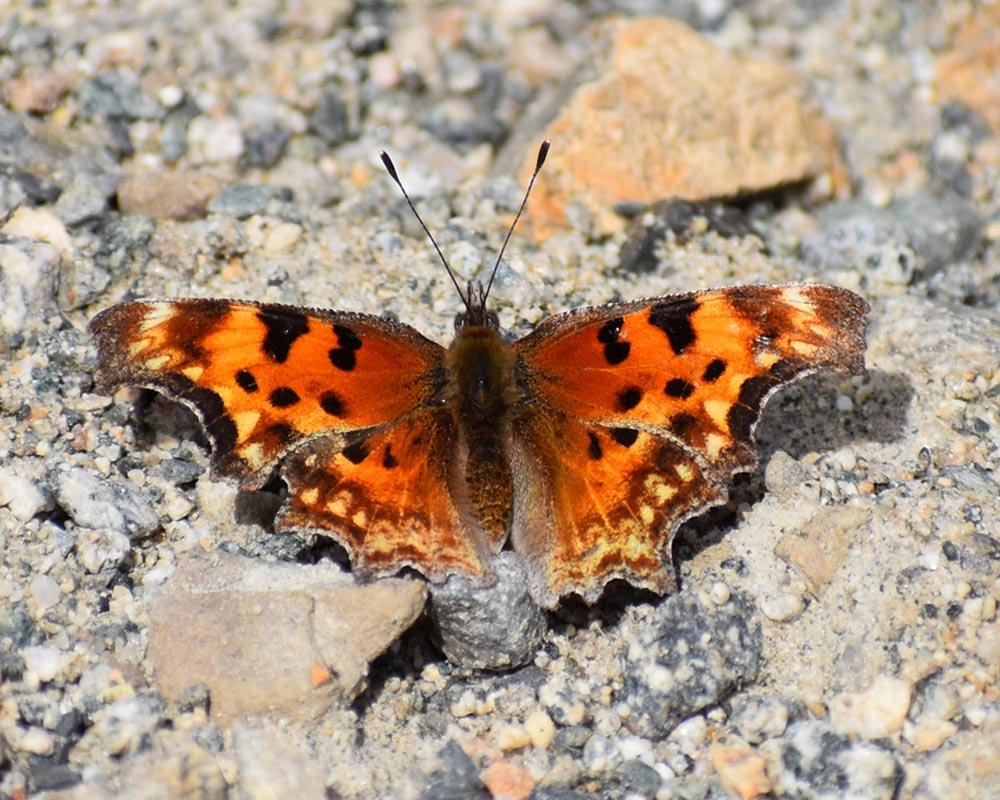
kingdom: Animalia
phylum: Arthropoda
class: Insecta
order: Lepidoptera
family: Nymphalidae
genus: Polygonia
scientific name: Polygonia gracilis
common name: Hoary Comma
